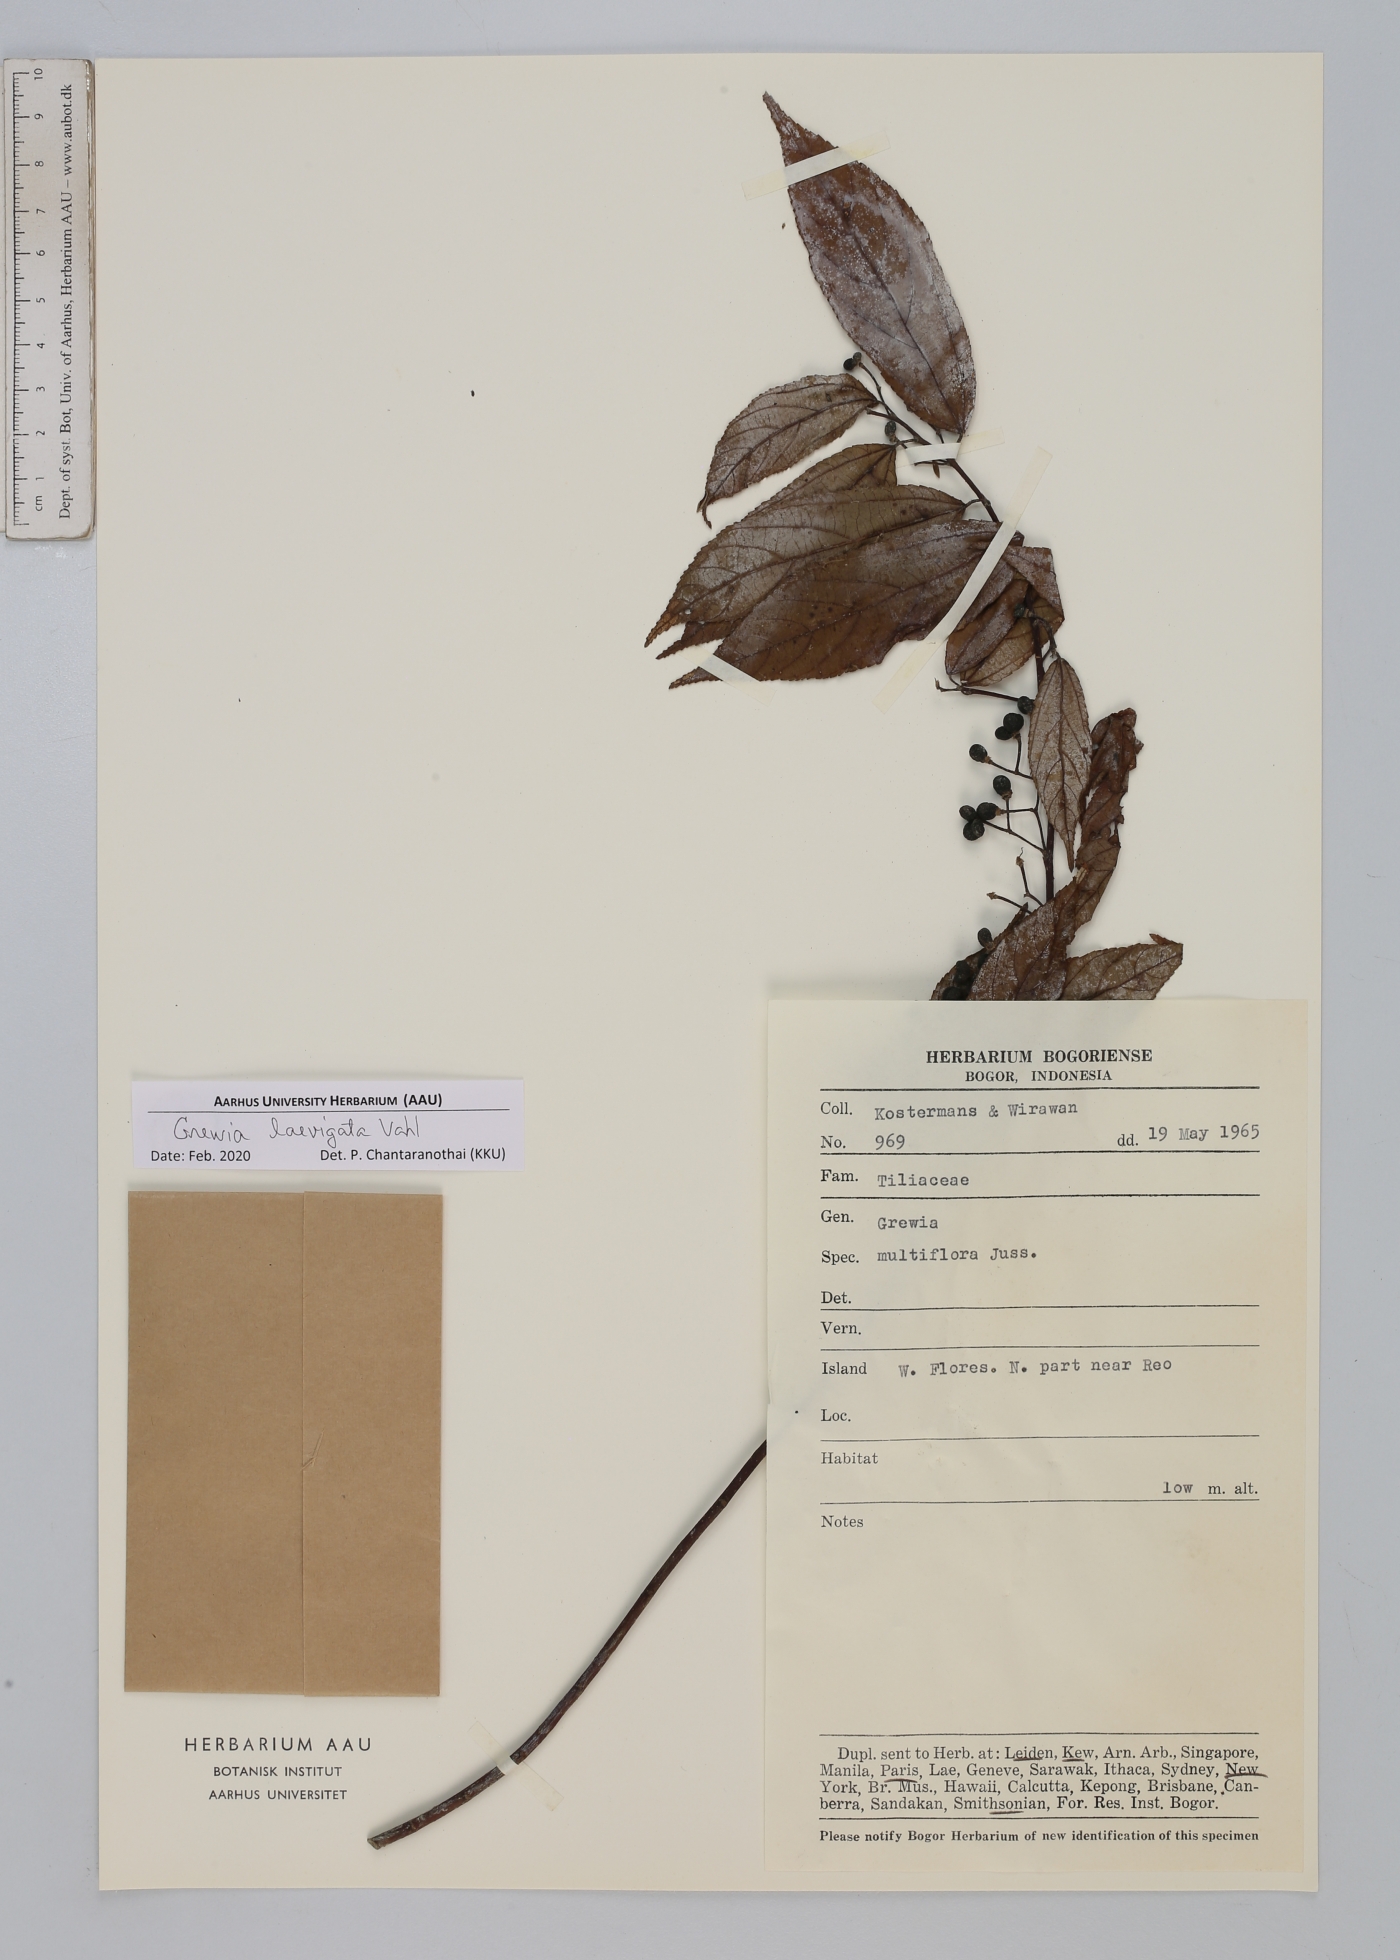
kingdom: Plantae
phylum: Tracheophyta
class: Magnoliopsida
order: Malvales
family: Malvaceae
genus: Grewia
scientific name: Grewia laevigata
